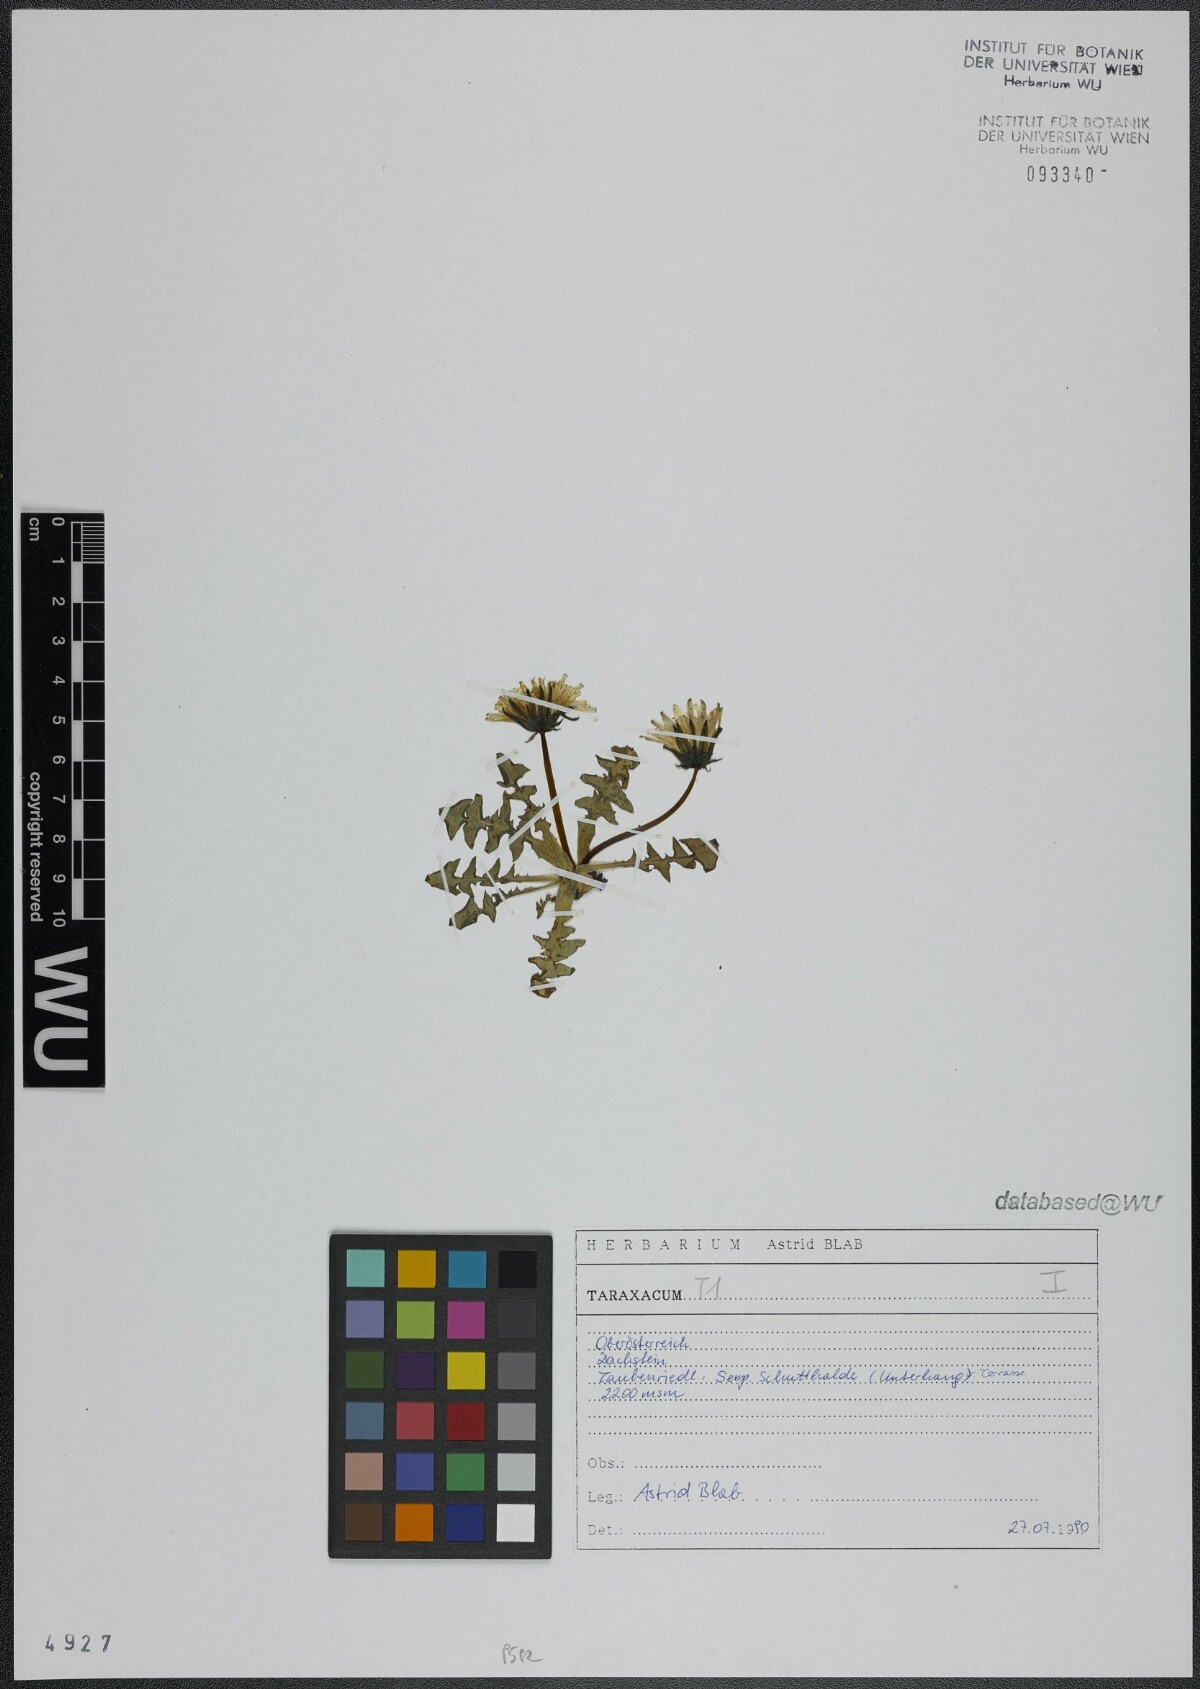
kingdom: Plantae
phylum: Tracheophyta
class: Magnoliopsida
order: Asterales
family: Asteraceae
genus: Taraxacum
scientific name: Taraxacum
